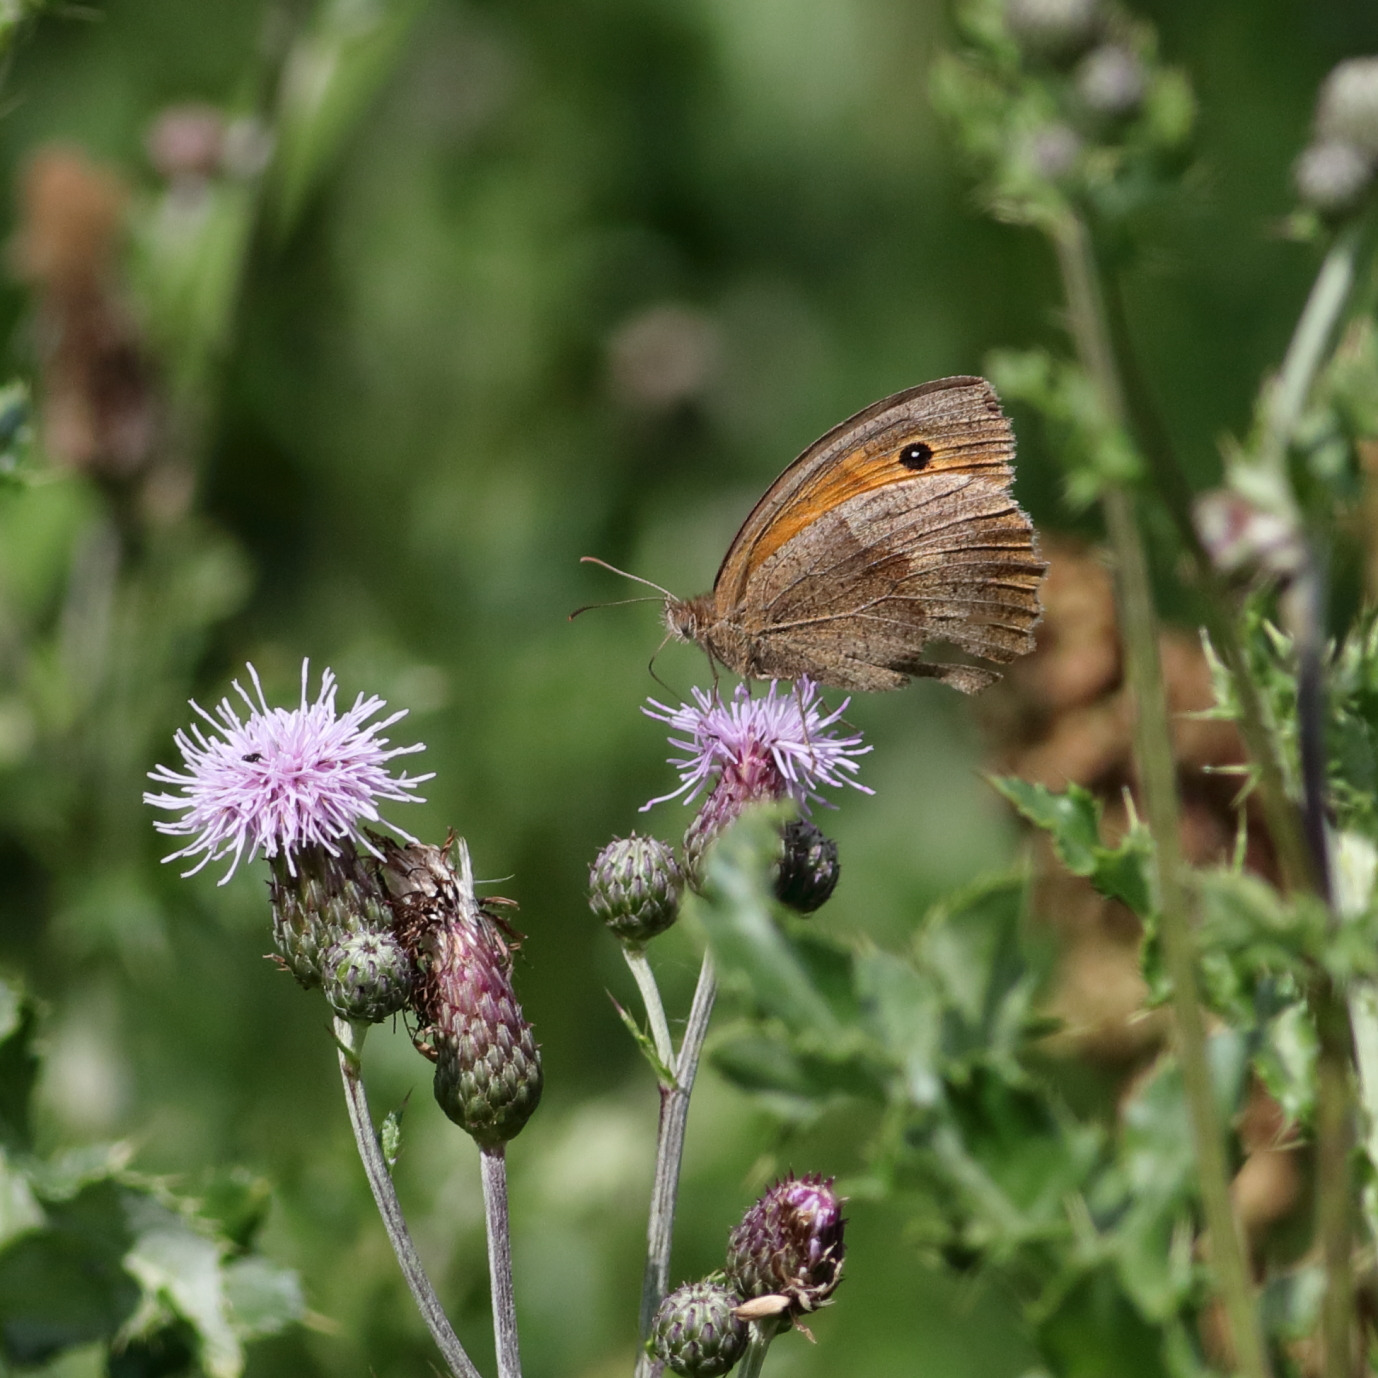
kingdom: Animalia
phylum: Arthropoda
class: Insecta
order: Lepidoptera
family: Nymphalidae
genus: Maniola
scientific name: Maniola jurtina
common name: Græsrandøje
